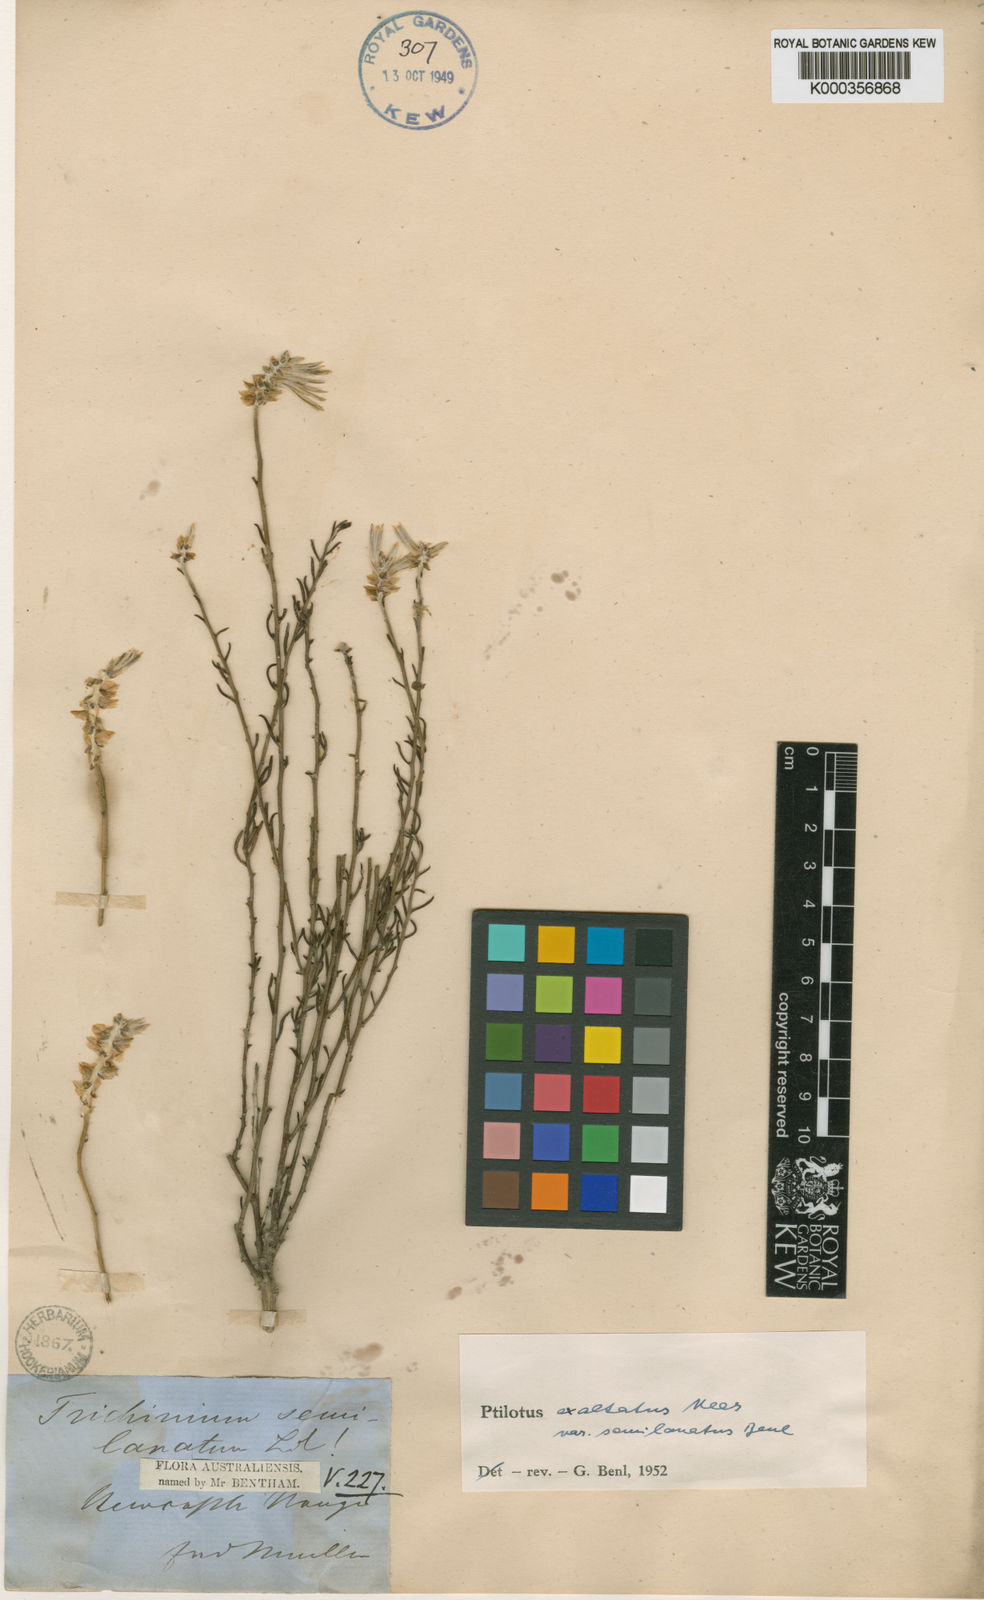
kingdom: Plantae
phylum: Tracheophyta
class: Magnoliopsida
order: Caryophyllales
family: Amaranthaceae
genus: Ptilotus
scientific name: Ptilotus semilanatus
